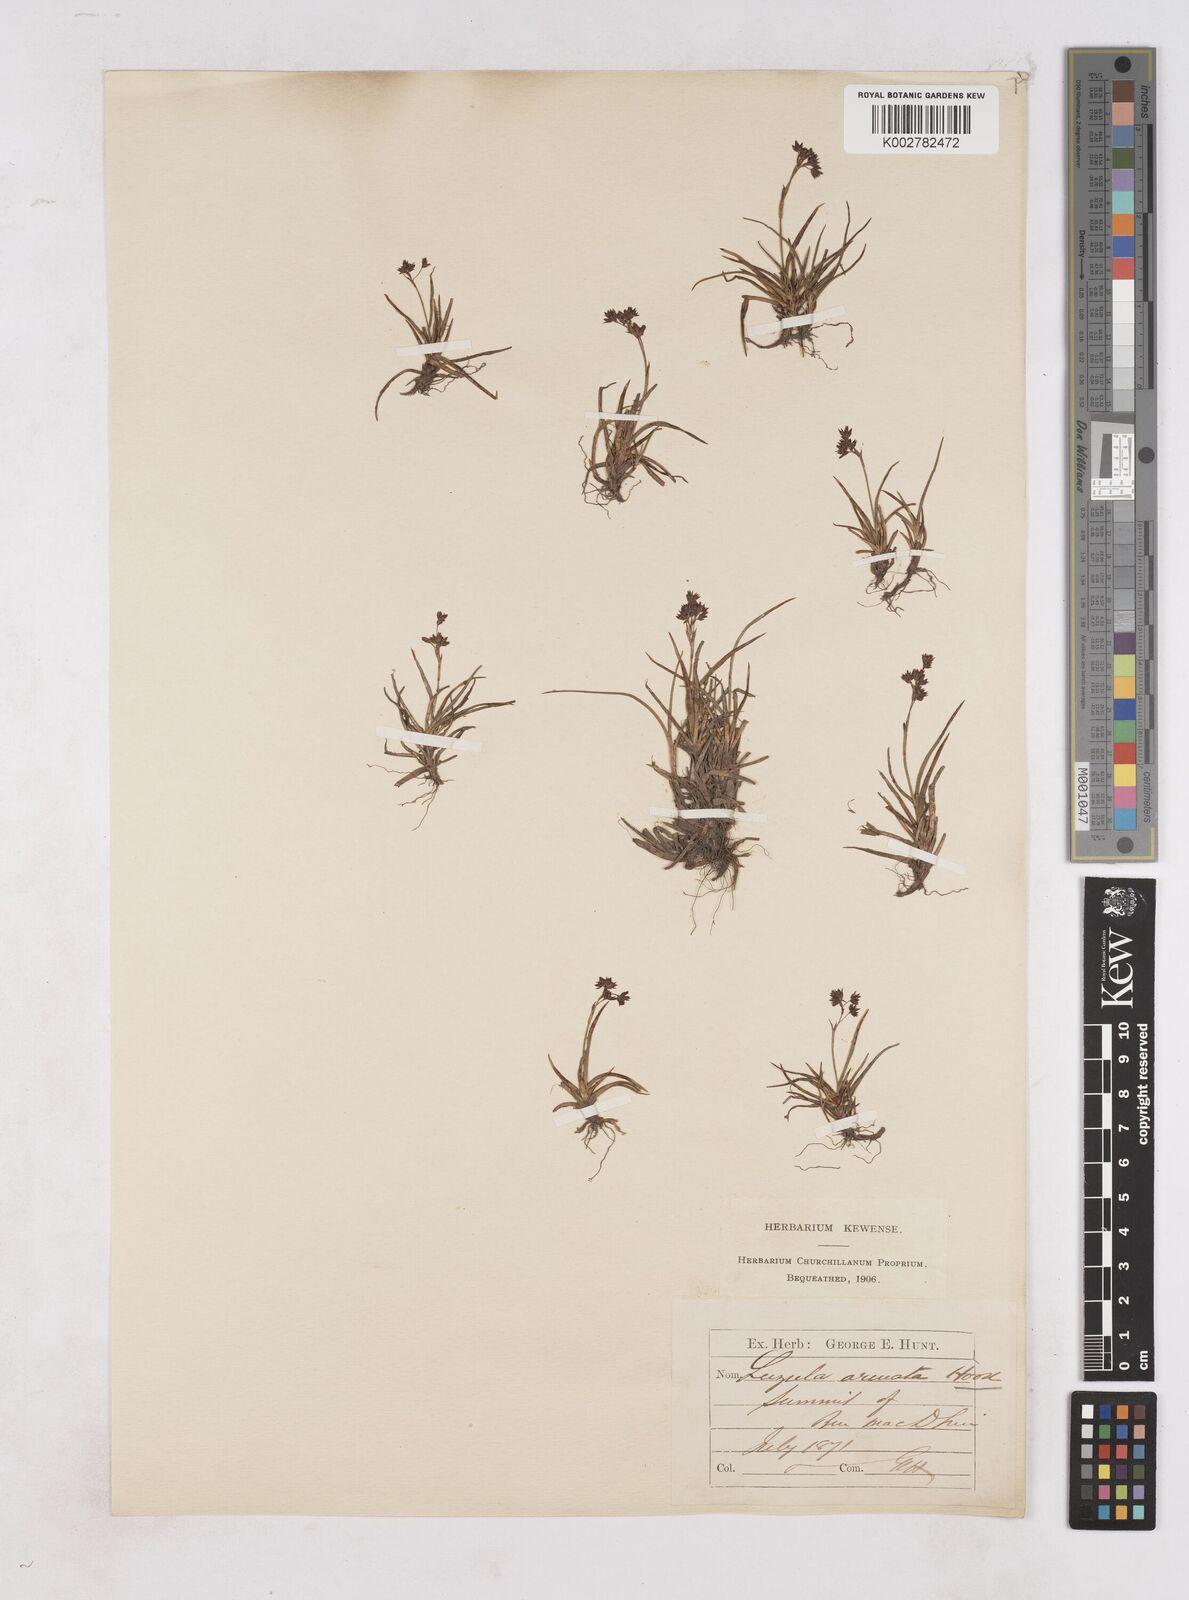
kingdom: Plantae
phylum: Tracheophyta
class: Liliopsida
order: Poales
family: Juncaceae
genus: Luzula
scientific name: Luzula arcuata
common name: Curved wood-rush
